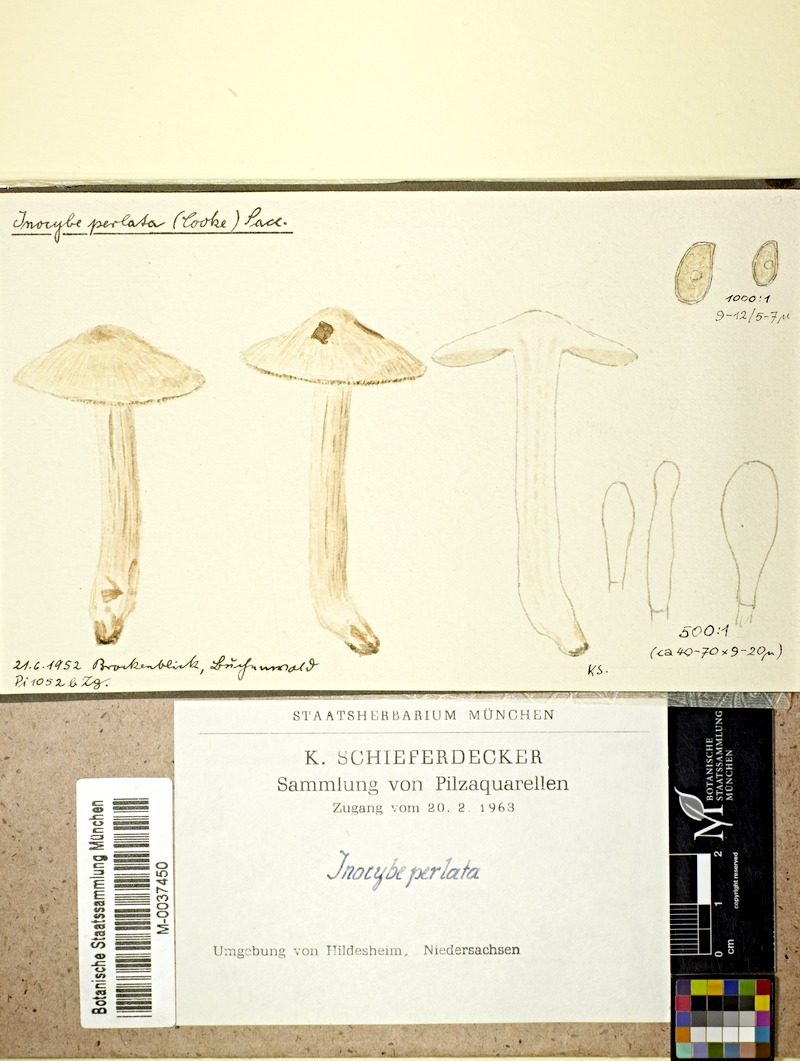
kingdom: Fungi
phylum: Basidiomycota
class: Agaricomycetes
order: Agaricales
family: Inocybaceae
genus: Pseudosperma
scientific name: Pseudosperma rimosum
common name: Split fibrecap
